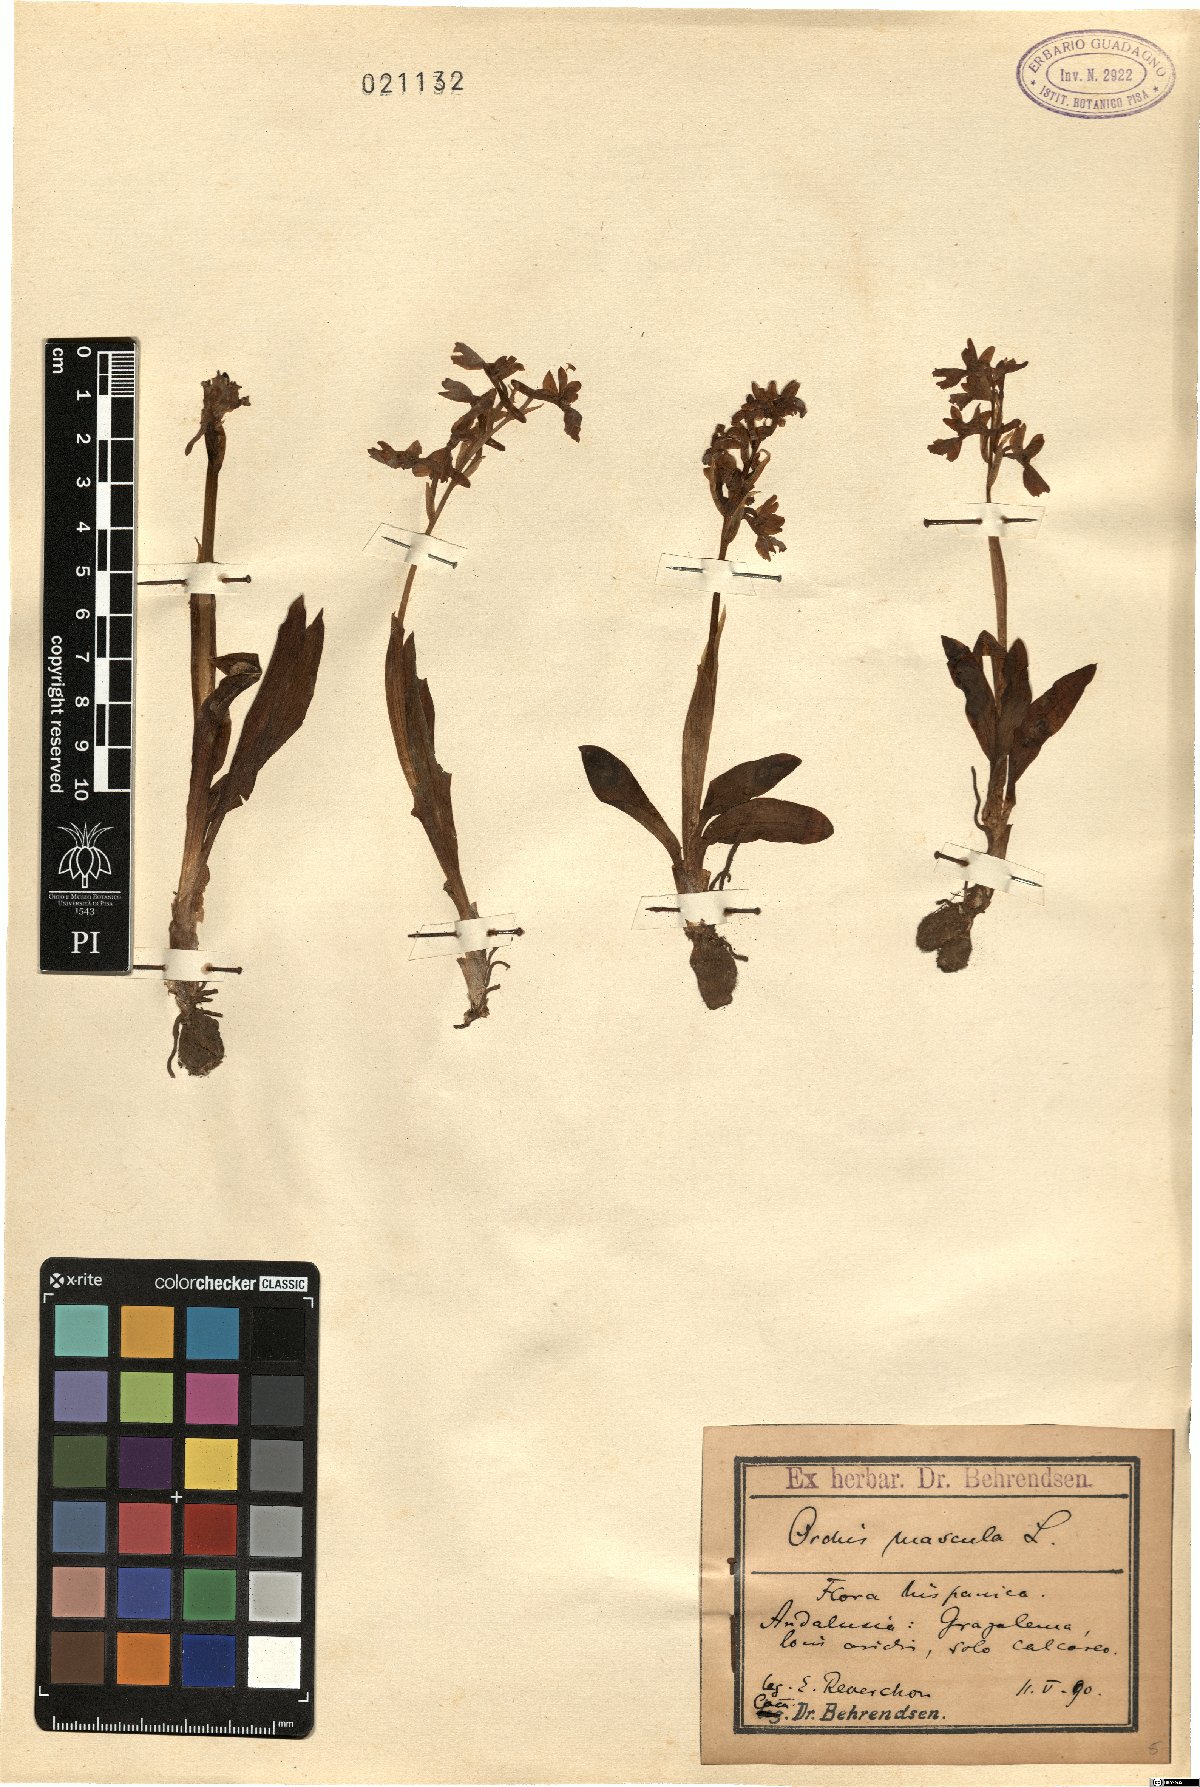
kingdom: Plantae
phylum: Tracheophyta
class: Liliopsida
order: Asparagales
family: Orchidaceae
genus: Orchis
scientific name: Orchis mascula
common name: Early-purple orchid
